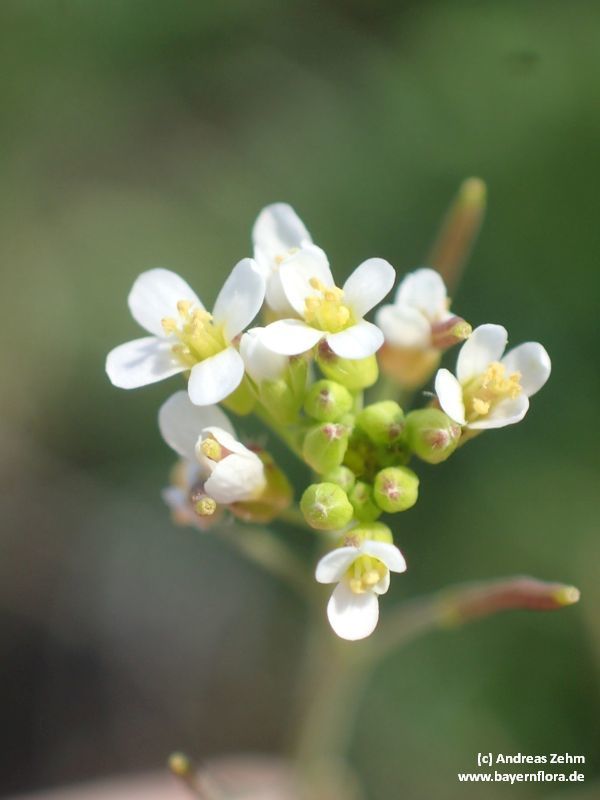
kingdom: Plantae
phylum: Tracheophyta
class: Magnoliopsida
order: Brassicales
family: Brassicaceae
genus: Arabidopsis
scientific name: Arabidopsis thaliana
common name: Thale cress
